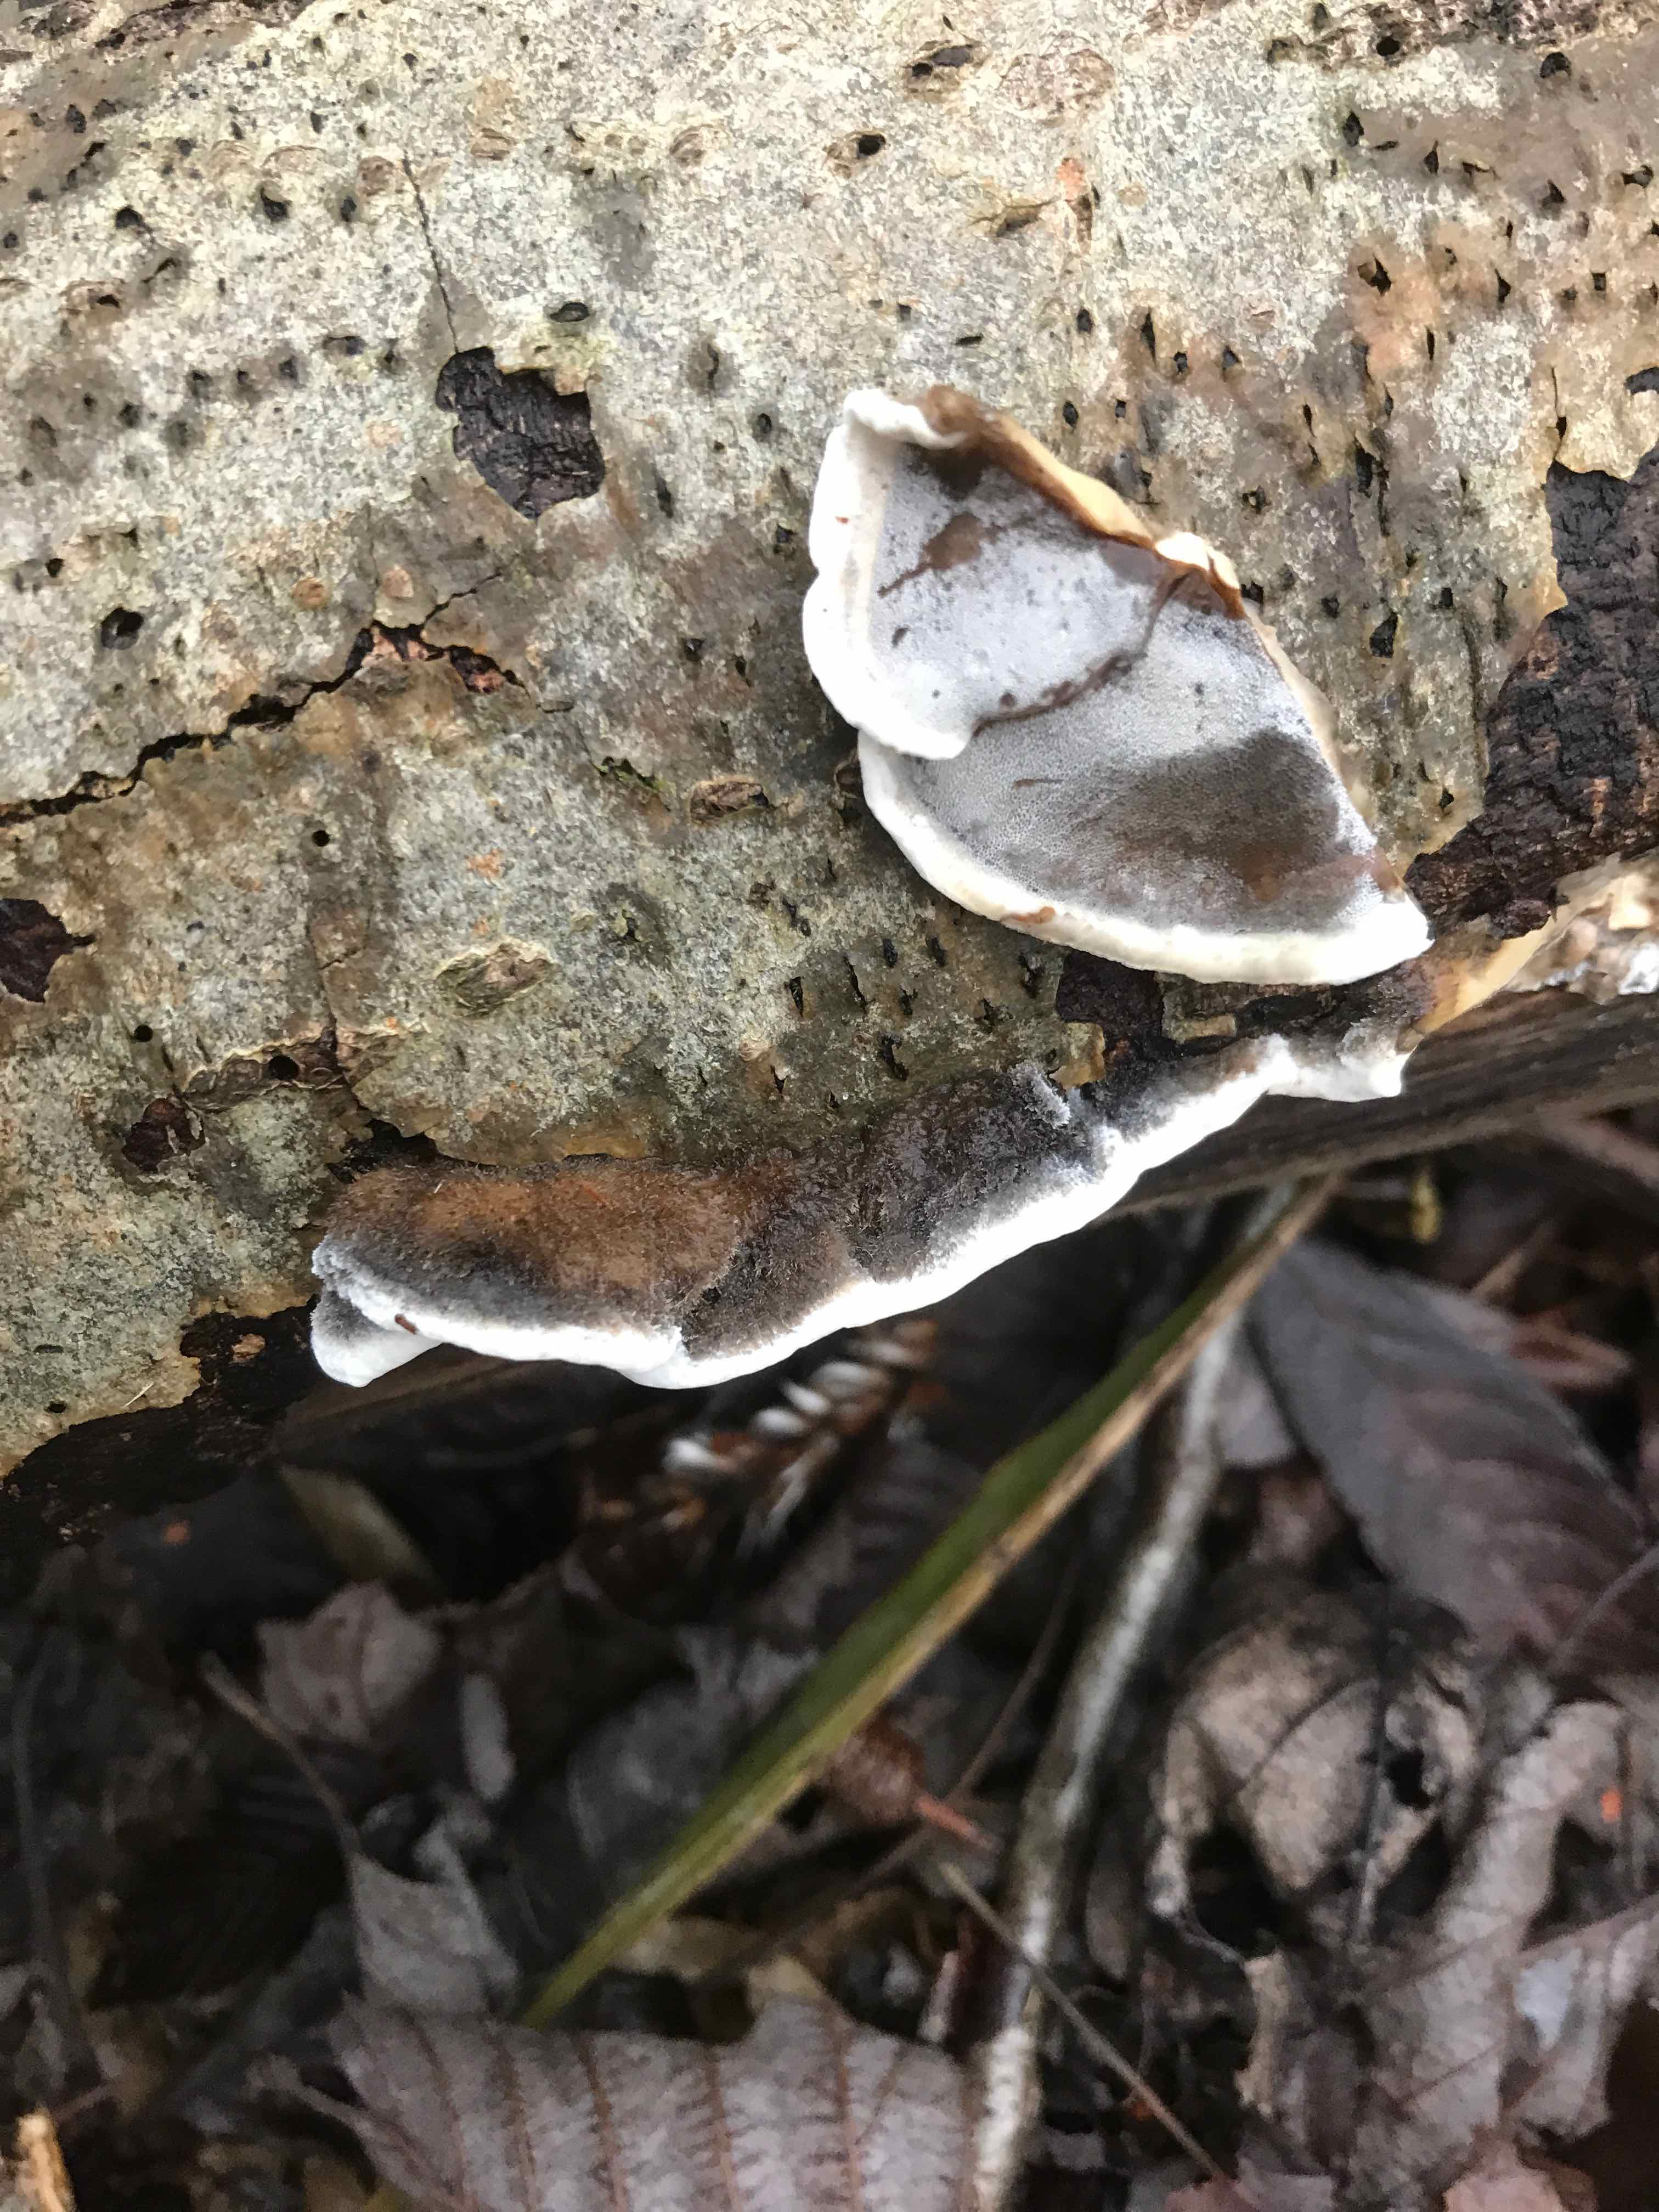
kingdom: Fungi
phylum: Basidiomycota
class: Agaricomycetes
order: Polyporales
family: Phanerochaetaceae
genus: Bjerkandera
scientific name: Bjerkandera adusta
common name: sveden sodporesvamp
